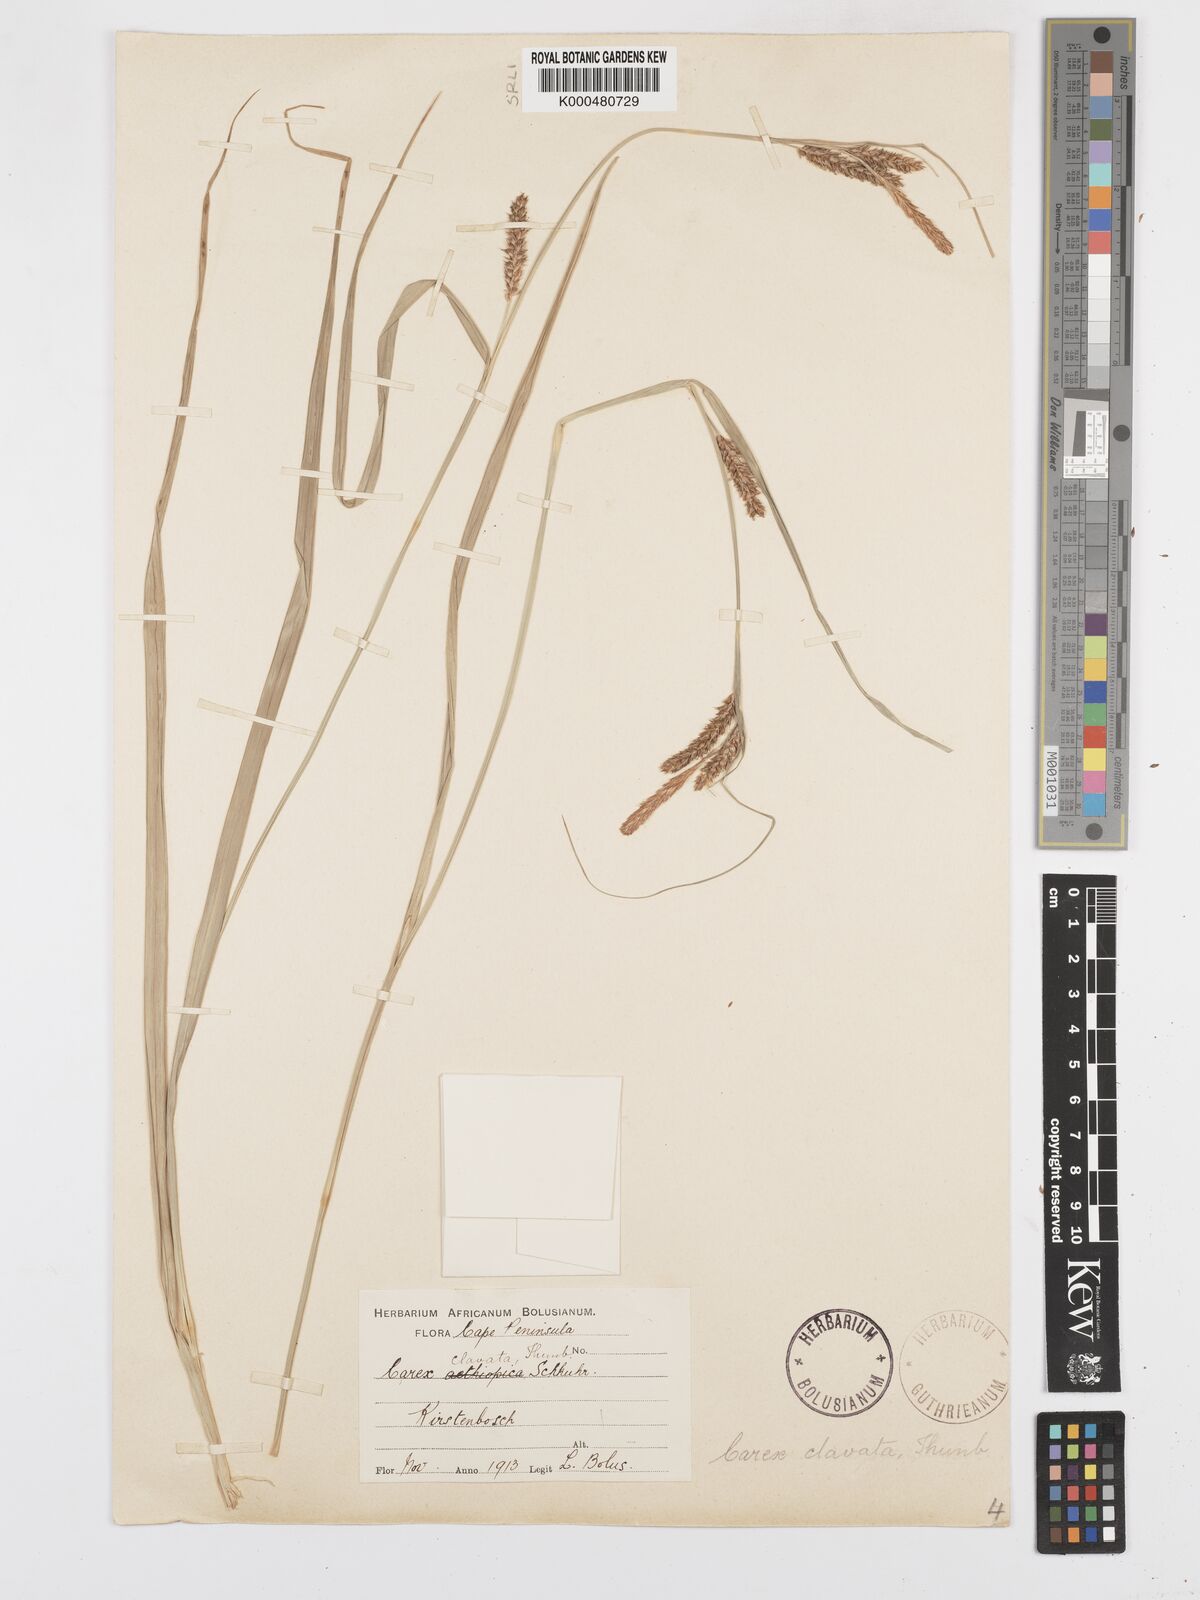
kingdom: Plantae
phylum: Tracheophyta
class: Liliopsida
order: Poales
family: Cyperaceae
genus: Carex
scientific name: Carex aethiopica
